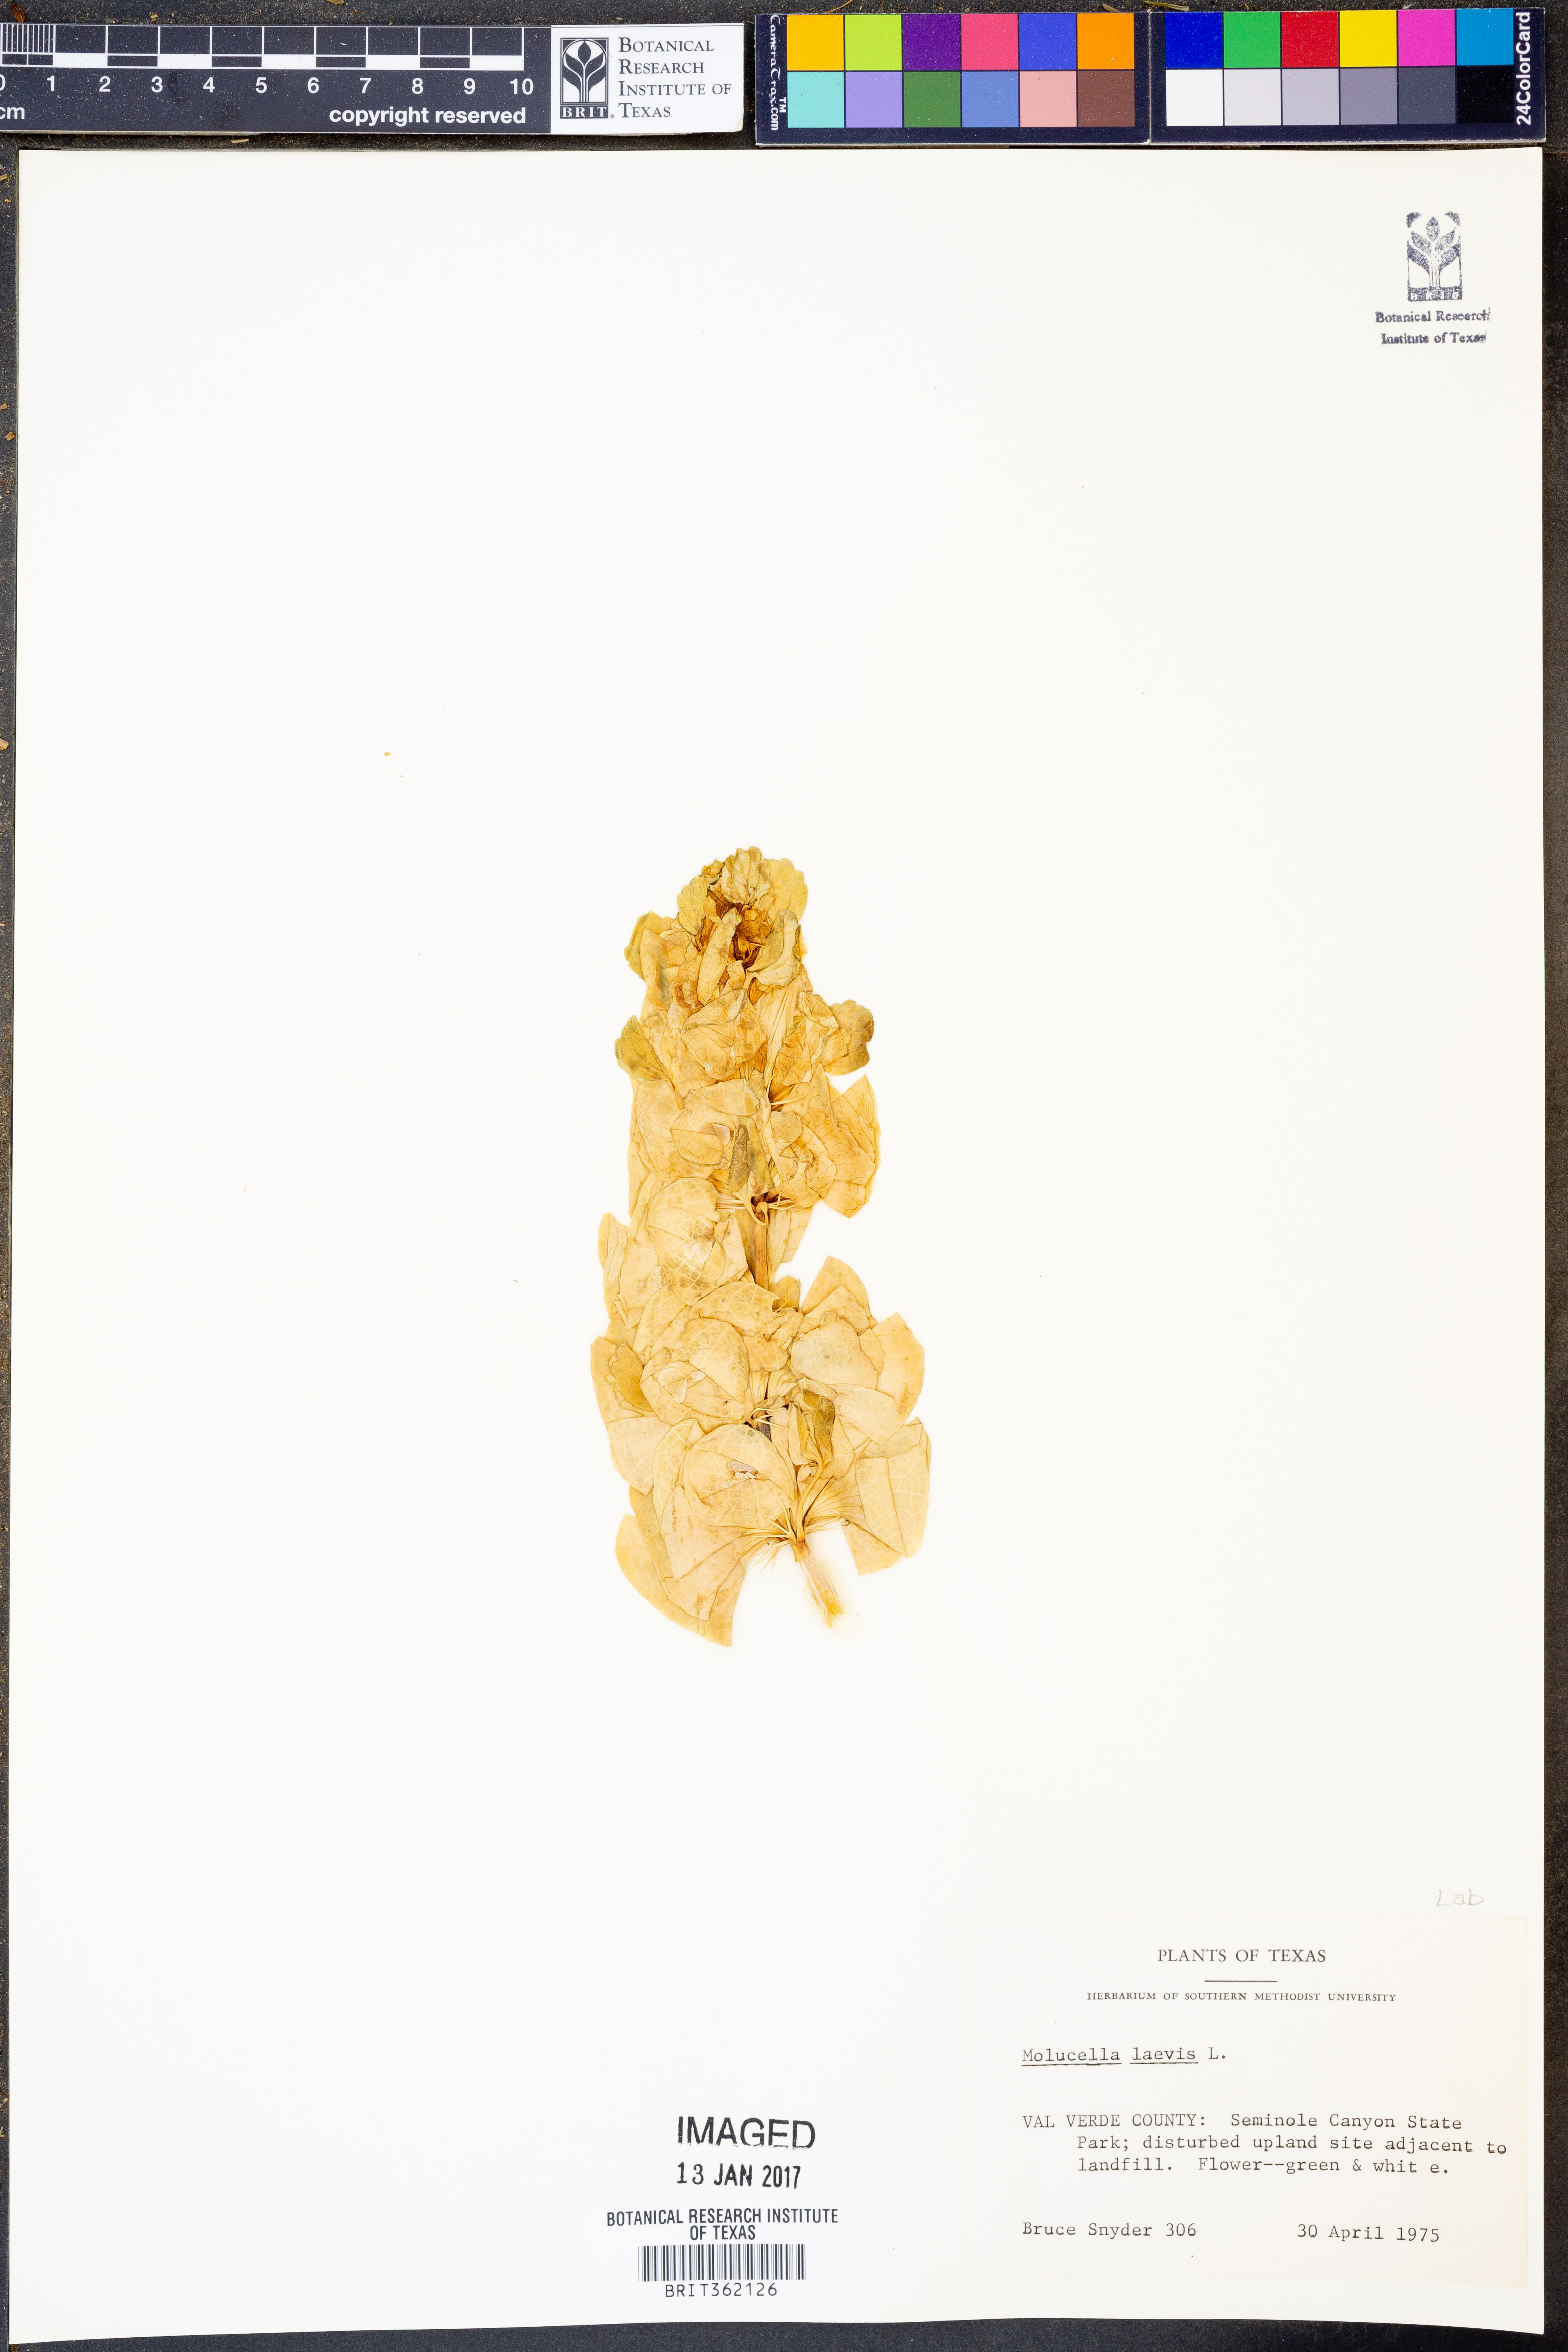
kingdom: Plantae
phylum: Tracheophyta
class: Magnoliopsida
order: Lamiales
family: Lamiaceae
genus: Moluccella
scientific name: Moluccella laevis
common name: Shellflower
